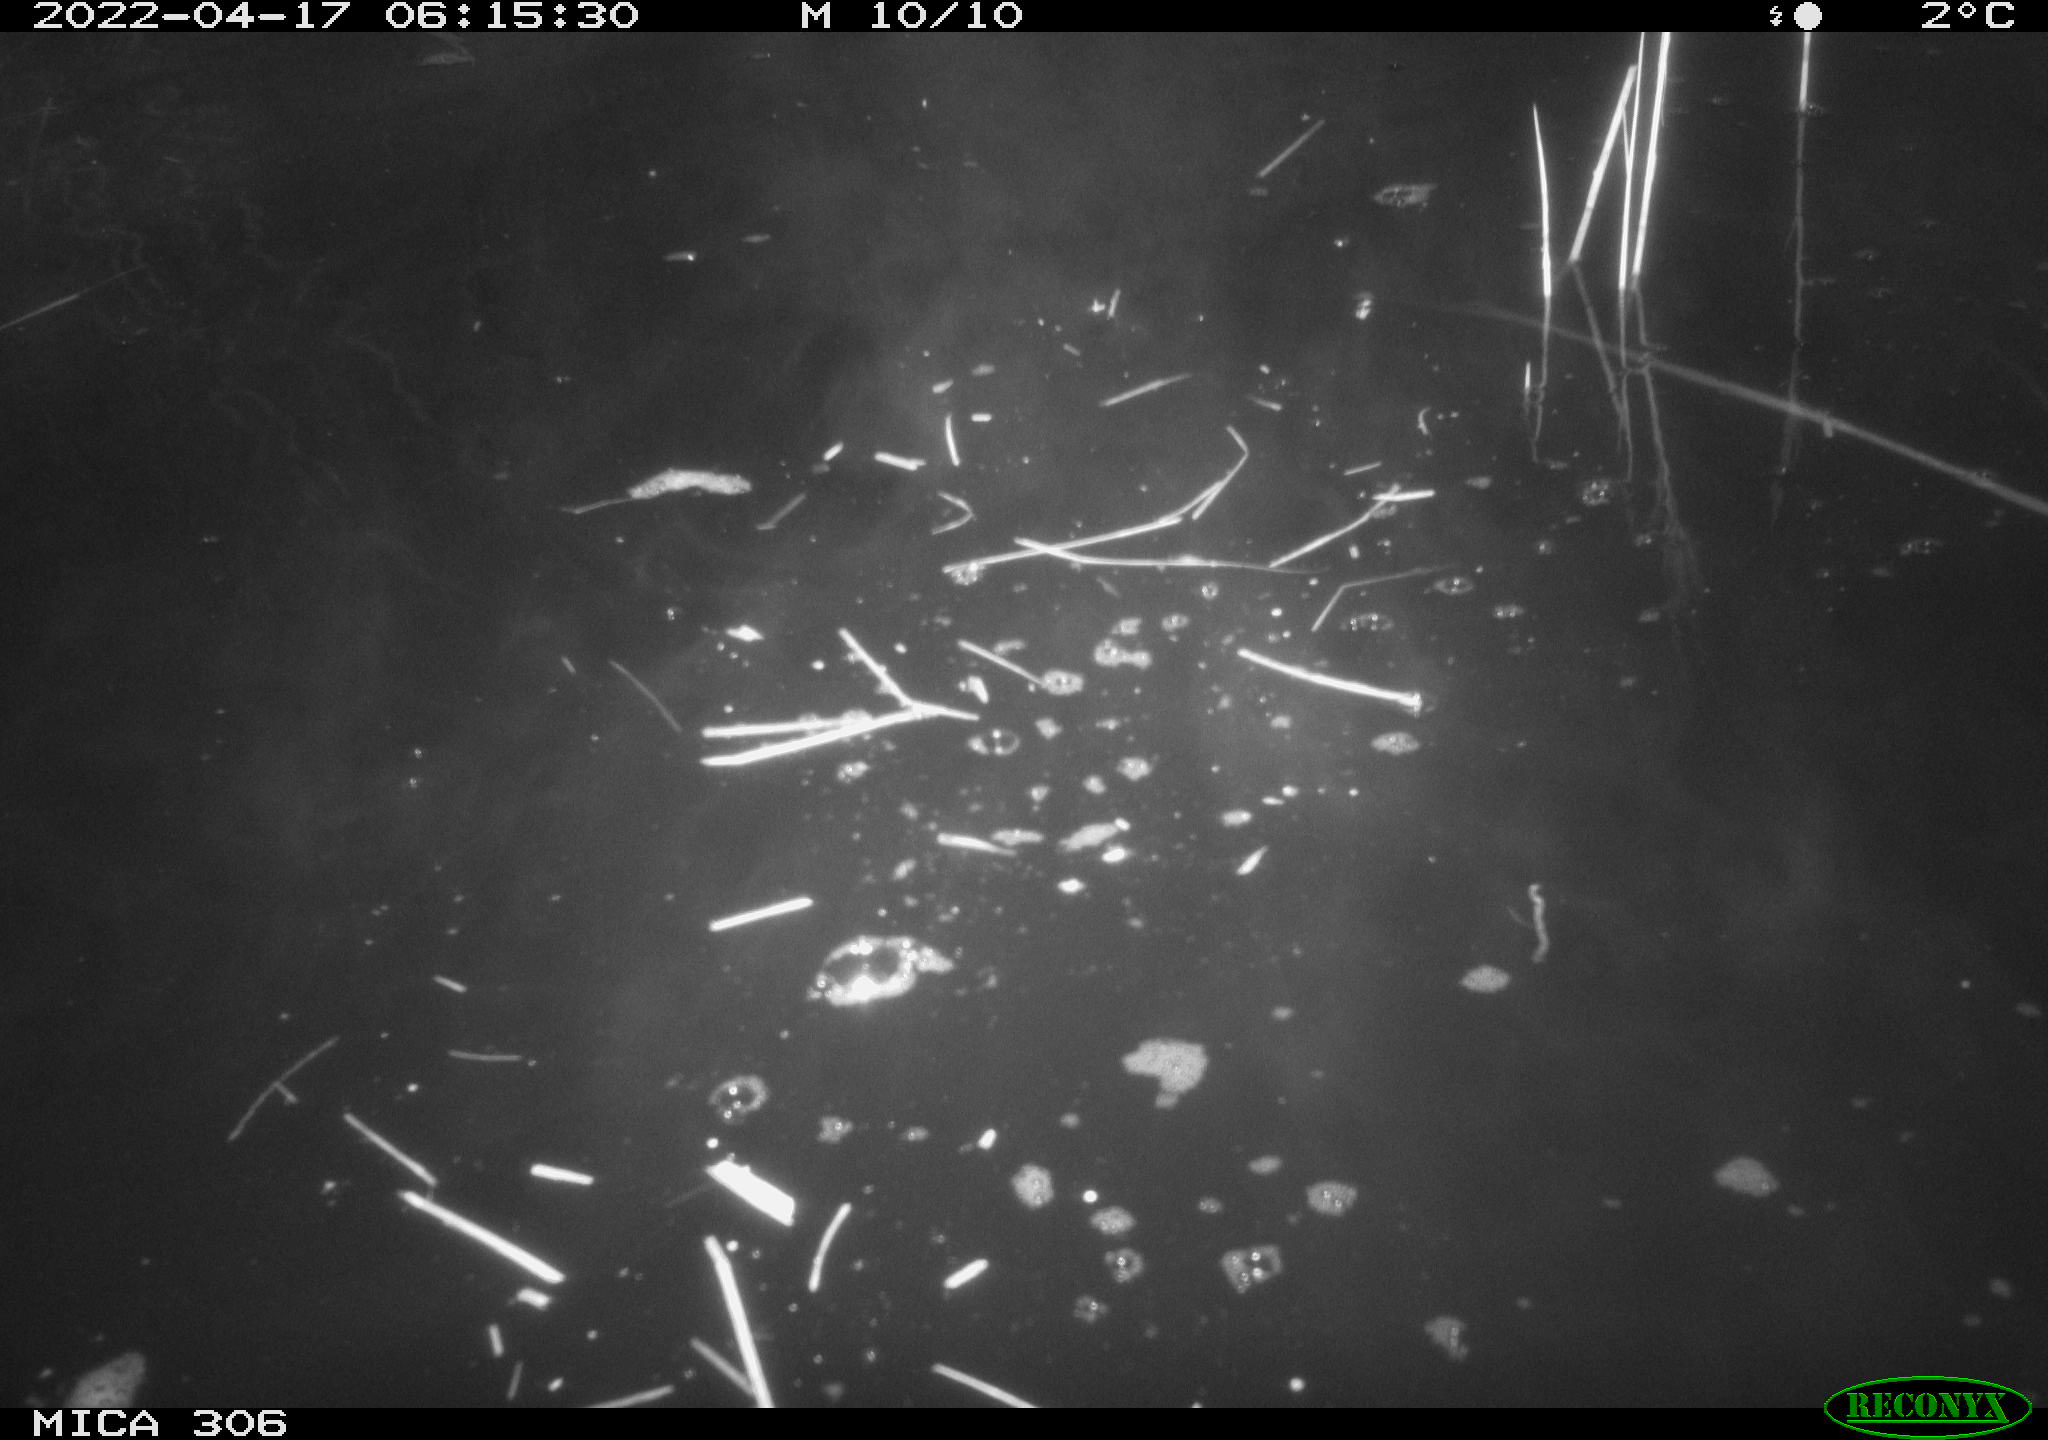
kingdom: Animalia
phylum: Chordata
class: Aves
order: Gruiformes
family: Rallidae
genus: Gallinula
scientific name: Gallinula chloropus
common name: Common moorhen
